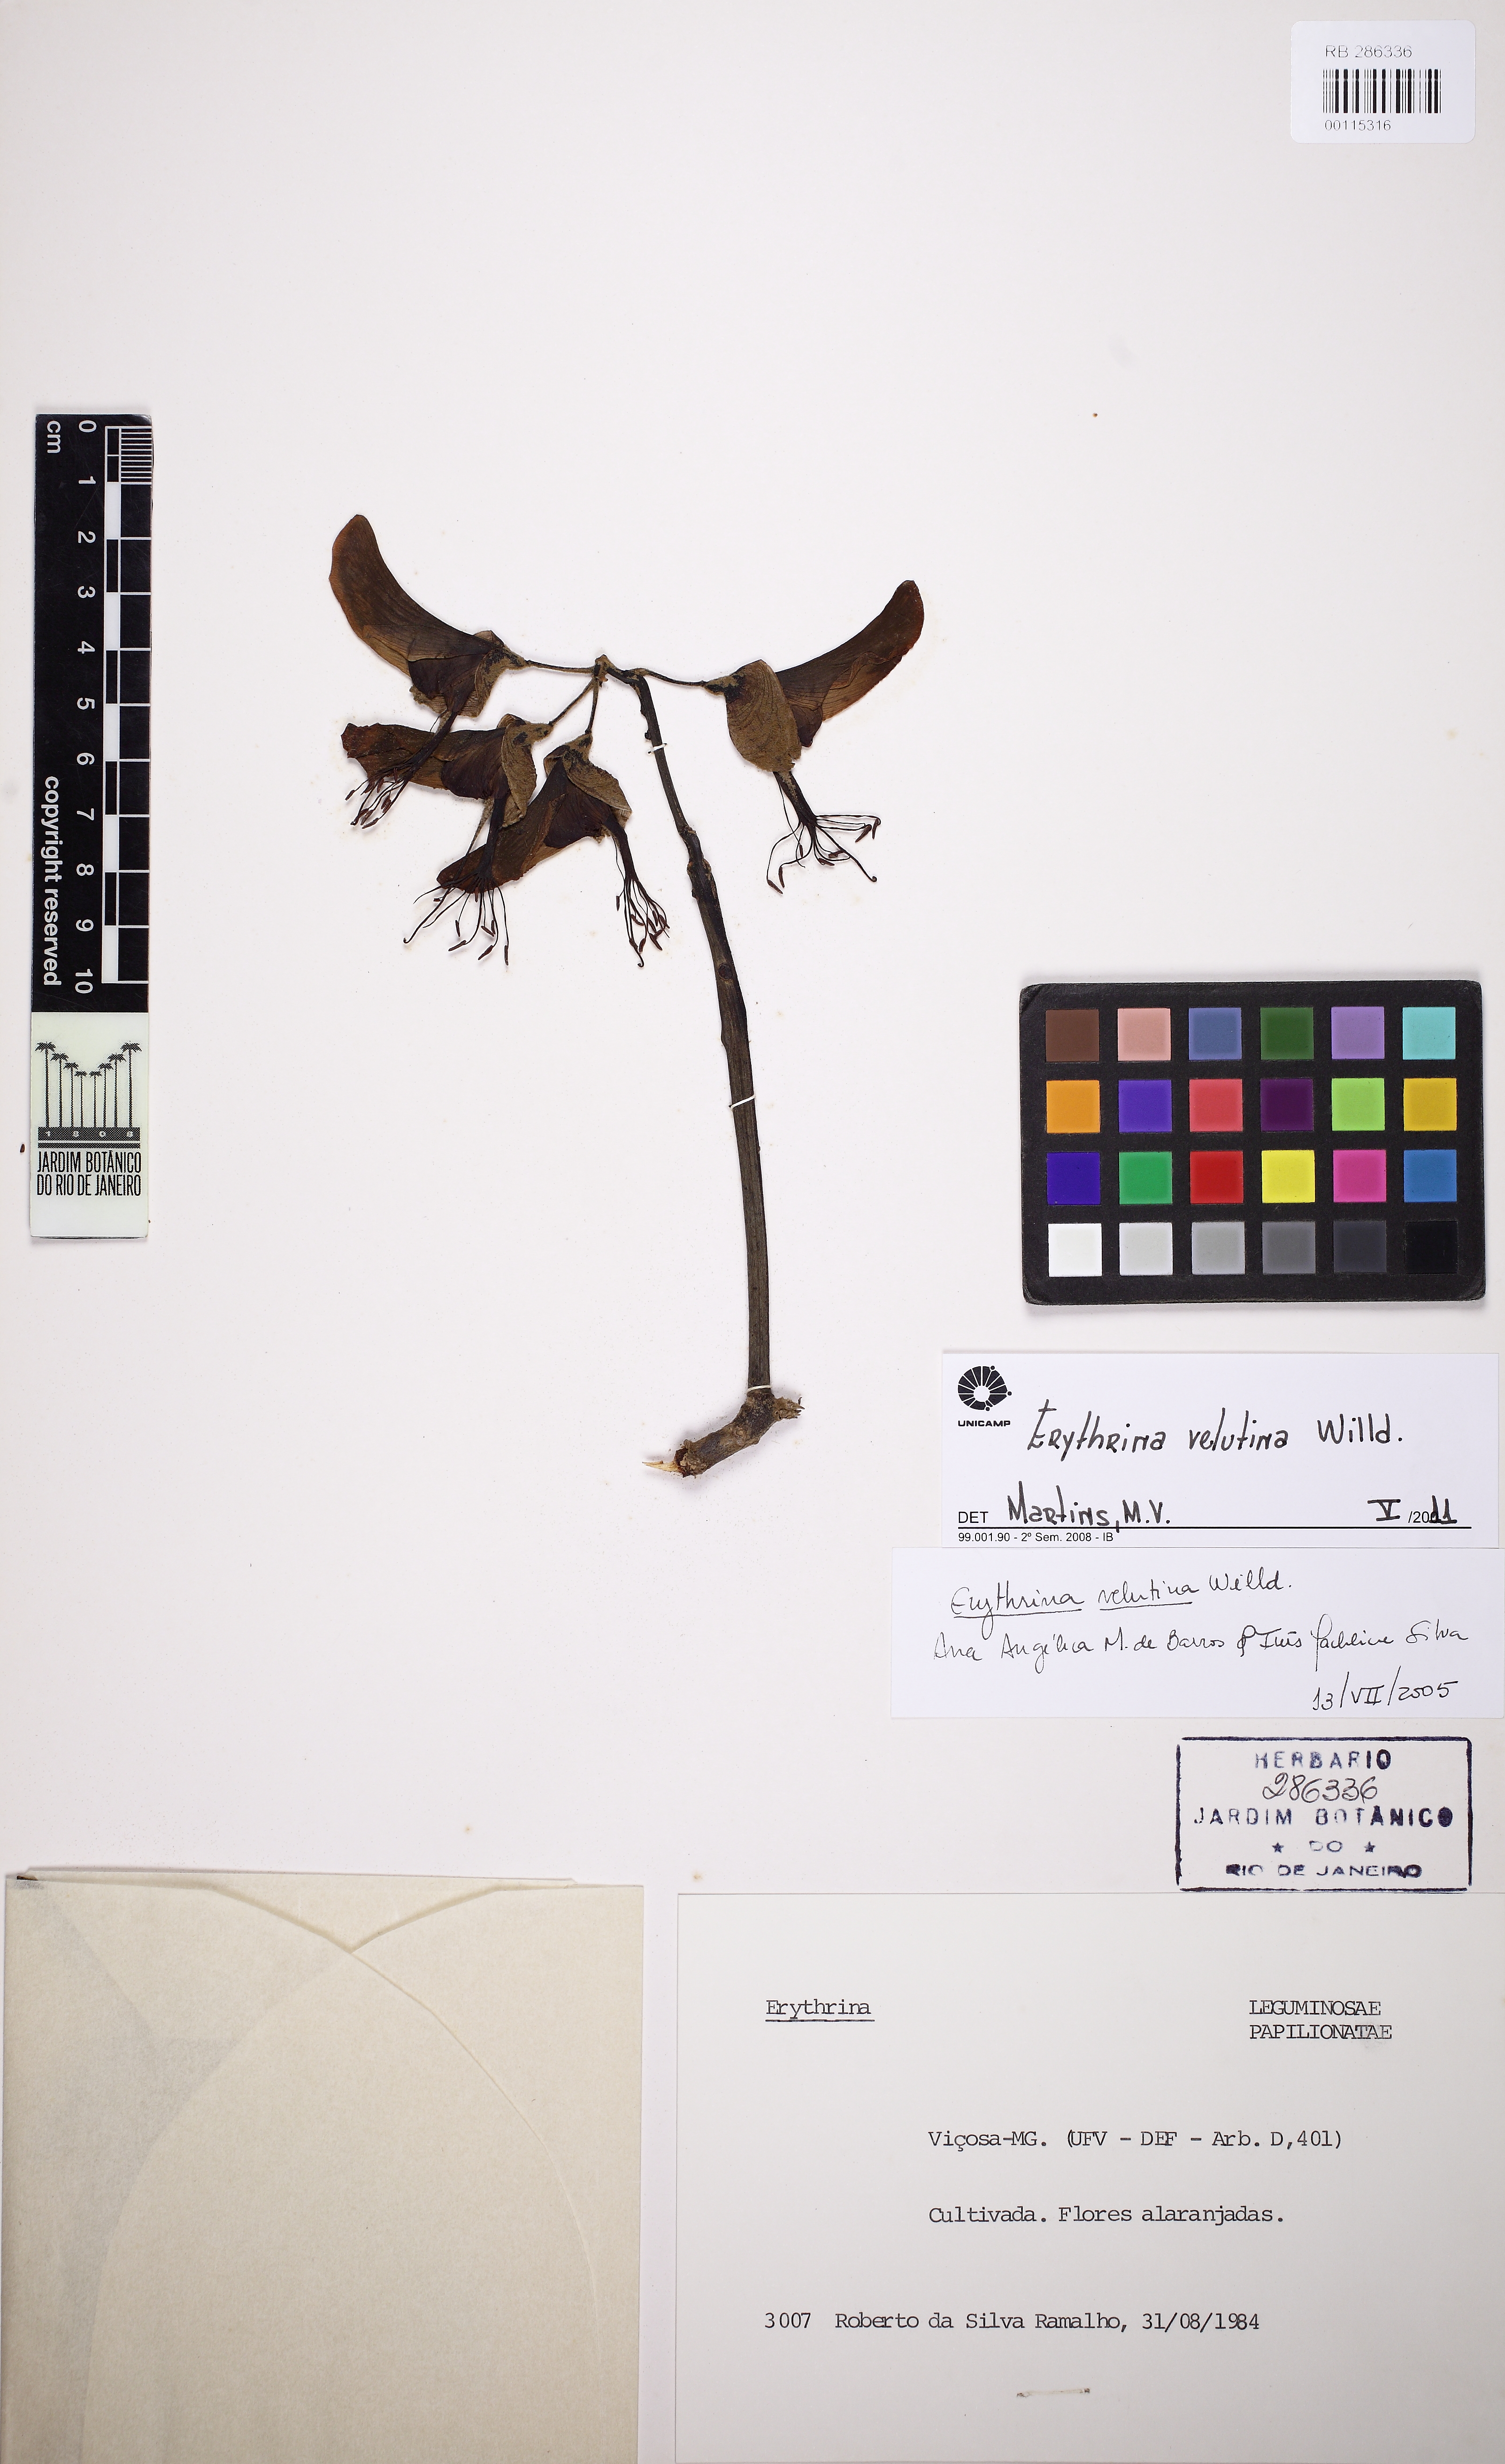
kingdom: Plantae
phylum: Tracheophyta
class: Magnoliopsida
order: Fabales
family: Fabaceae
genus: Erythrina
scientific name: Erythrina velutina
